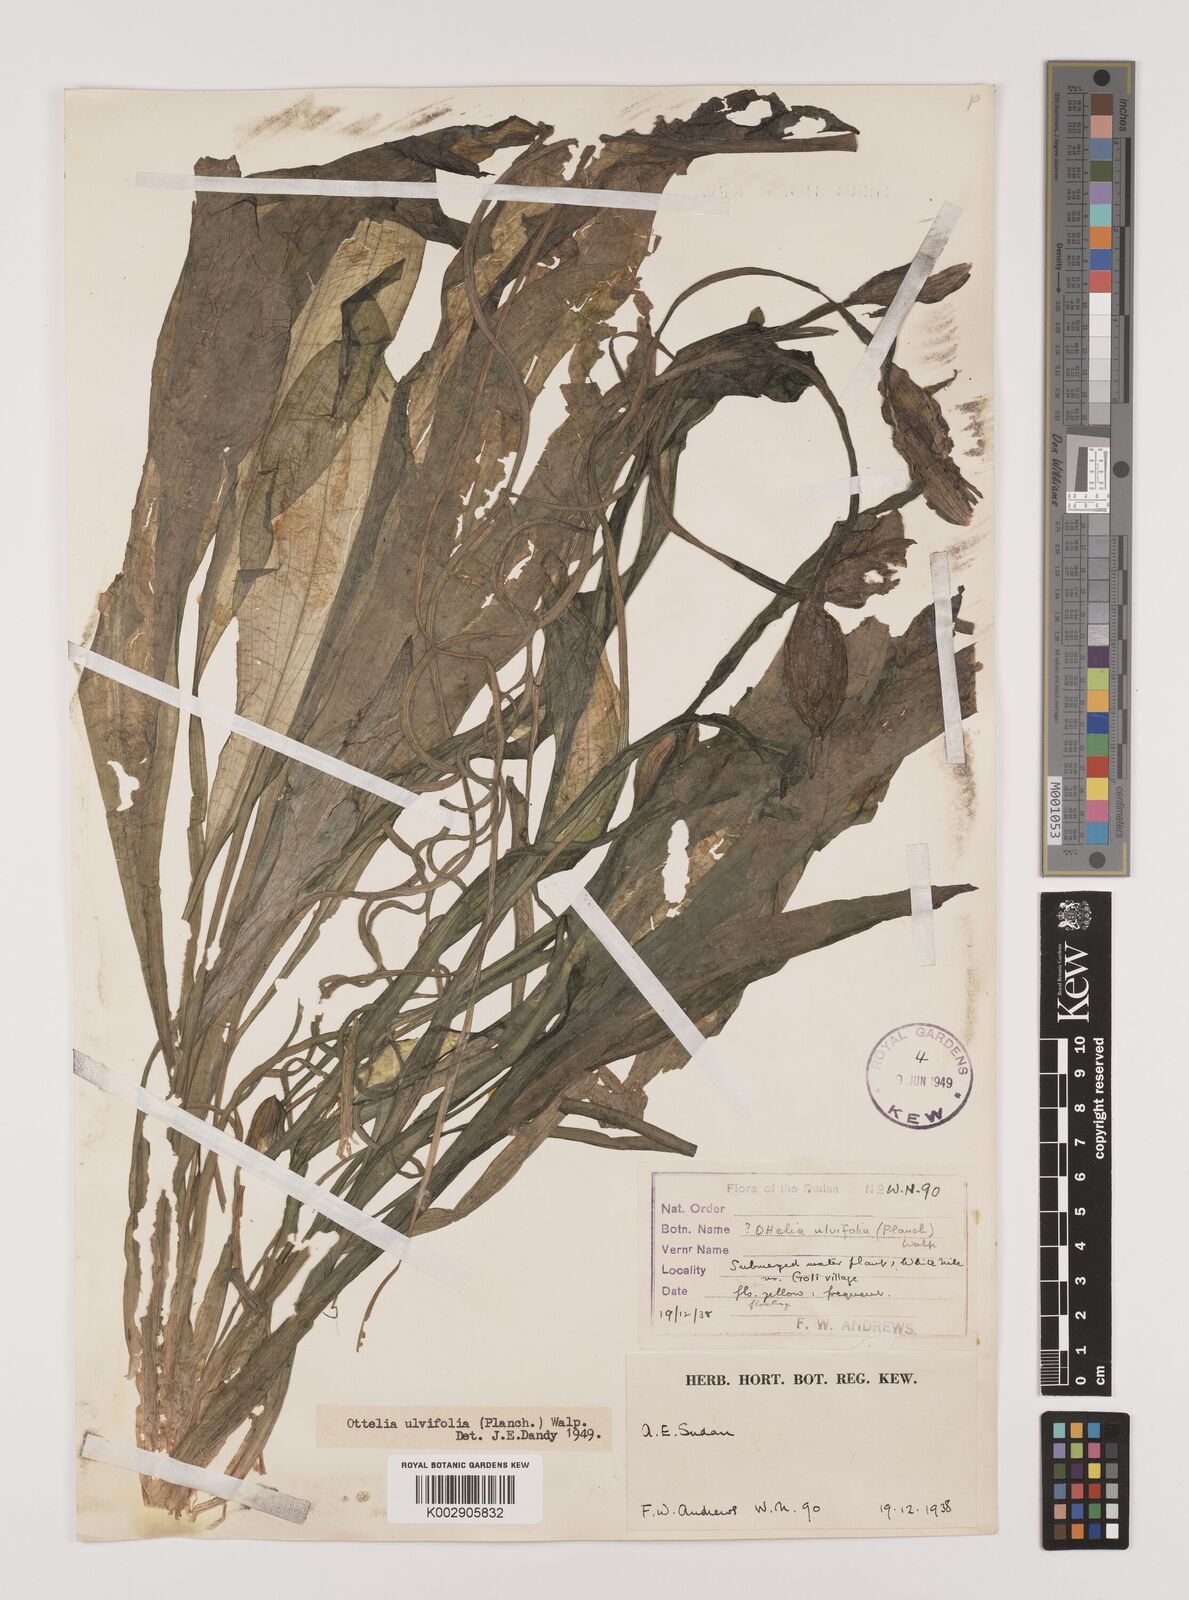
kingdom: Plantae
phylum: Tracheophyta
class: Liliopsida
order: Alismatales
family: Hydrocharitaceae
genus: Ottelia
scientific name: Ottelia ulvifolia
